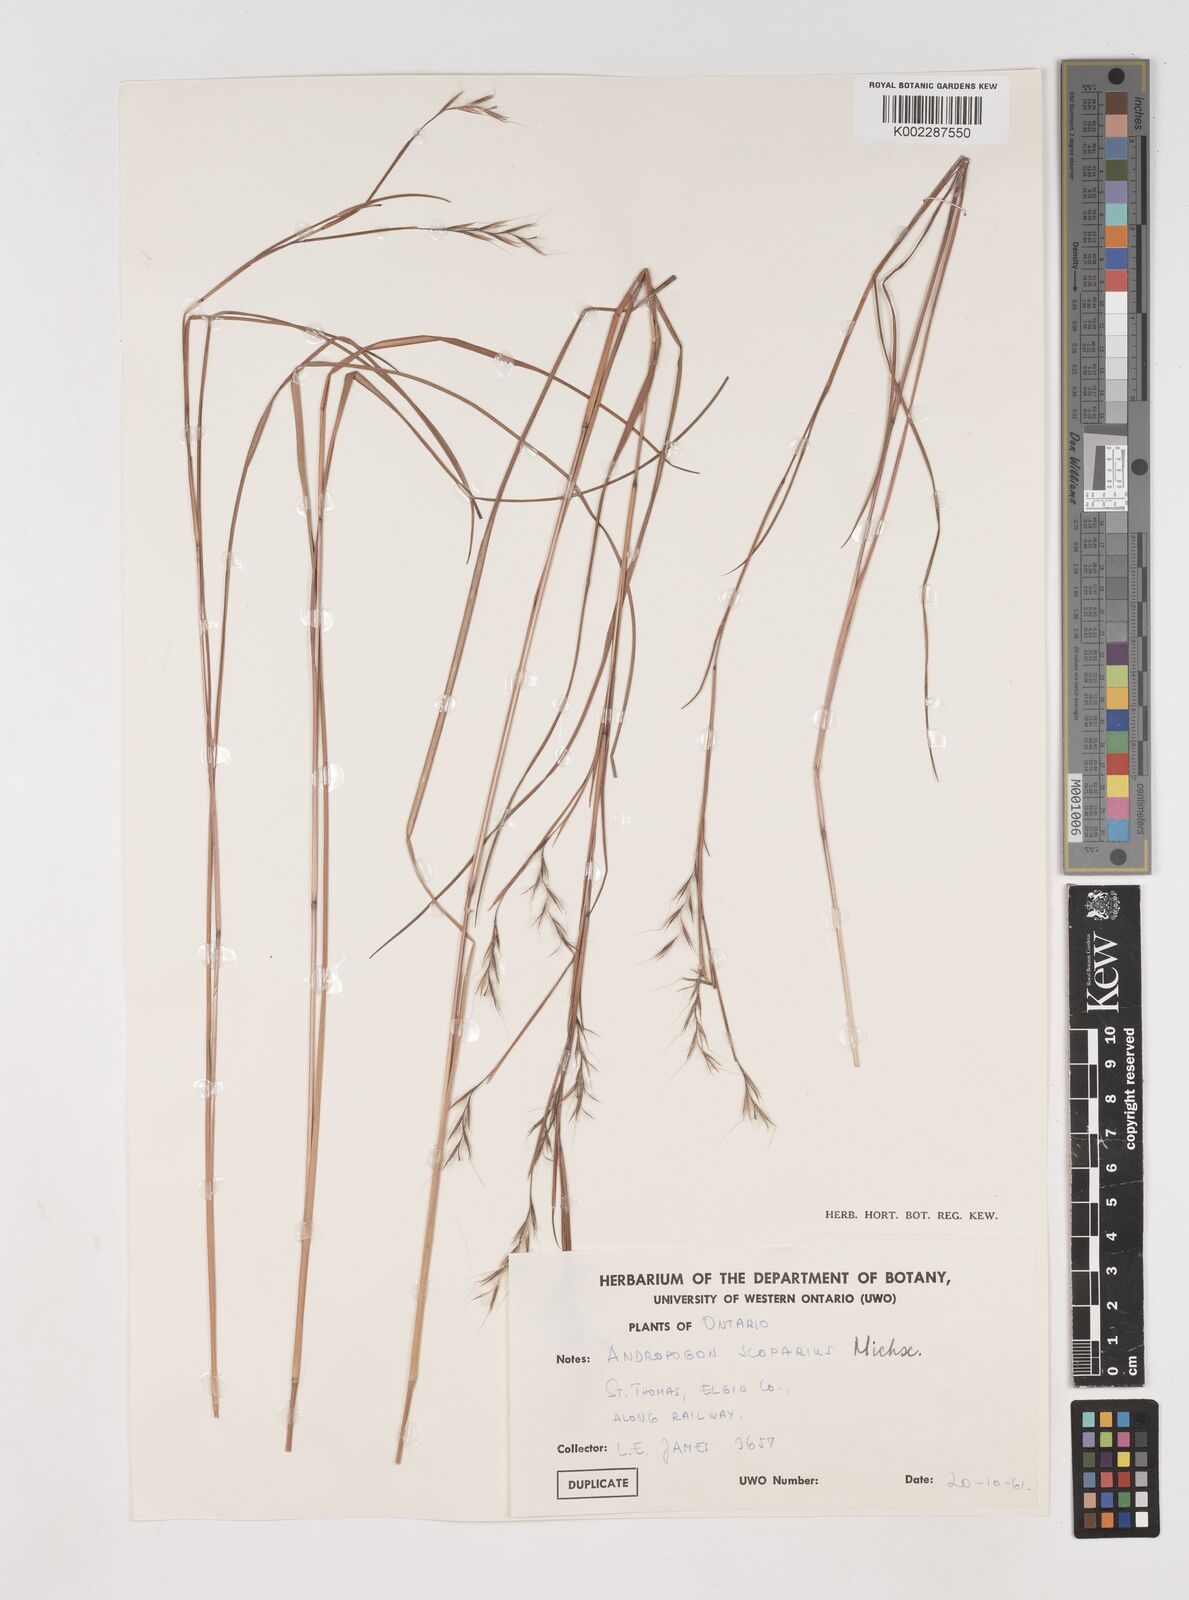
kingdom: Plantae
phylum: Tracheophyta
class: Liliopsida
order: Poales
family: Poaceae
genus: Schizachyrium
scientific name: Schizachyrium scoparium
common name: Little bluestem
